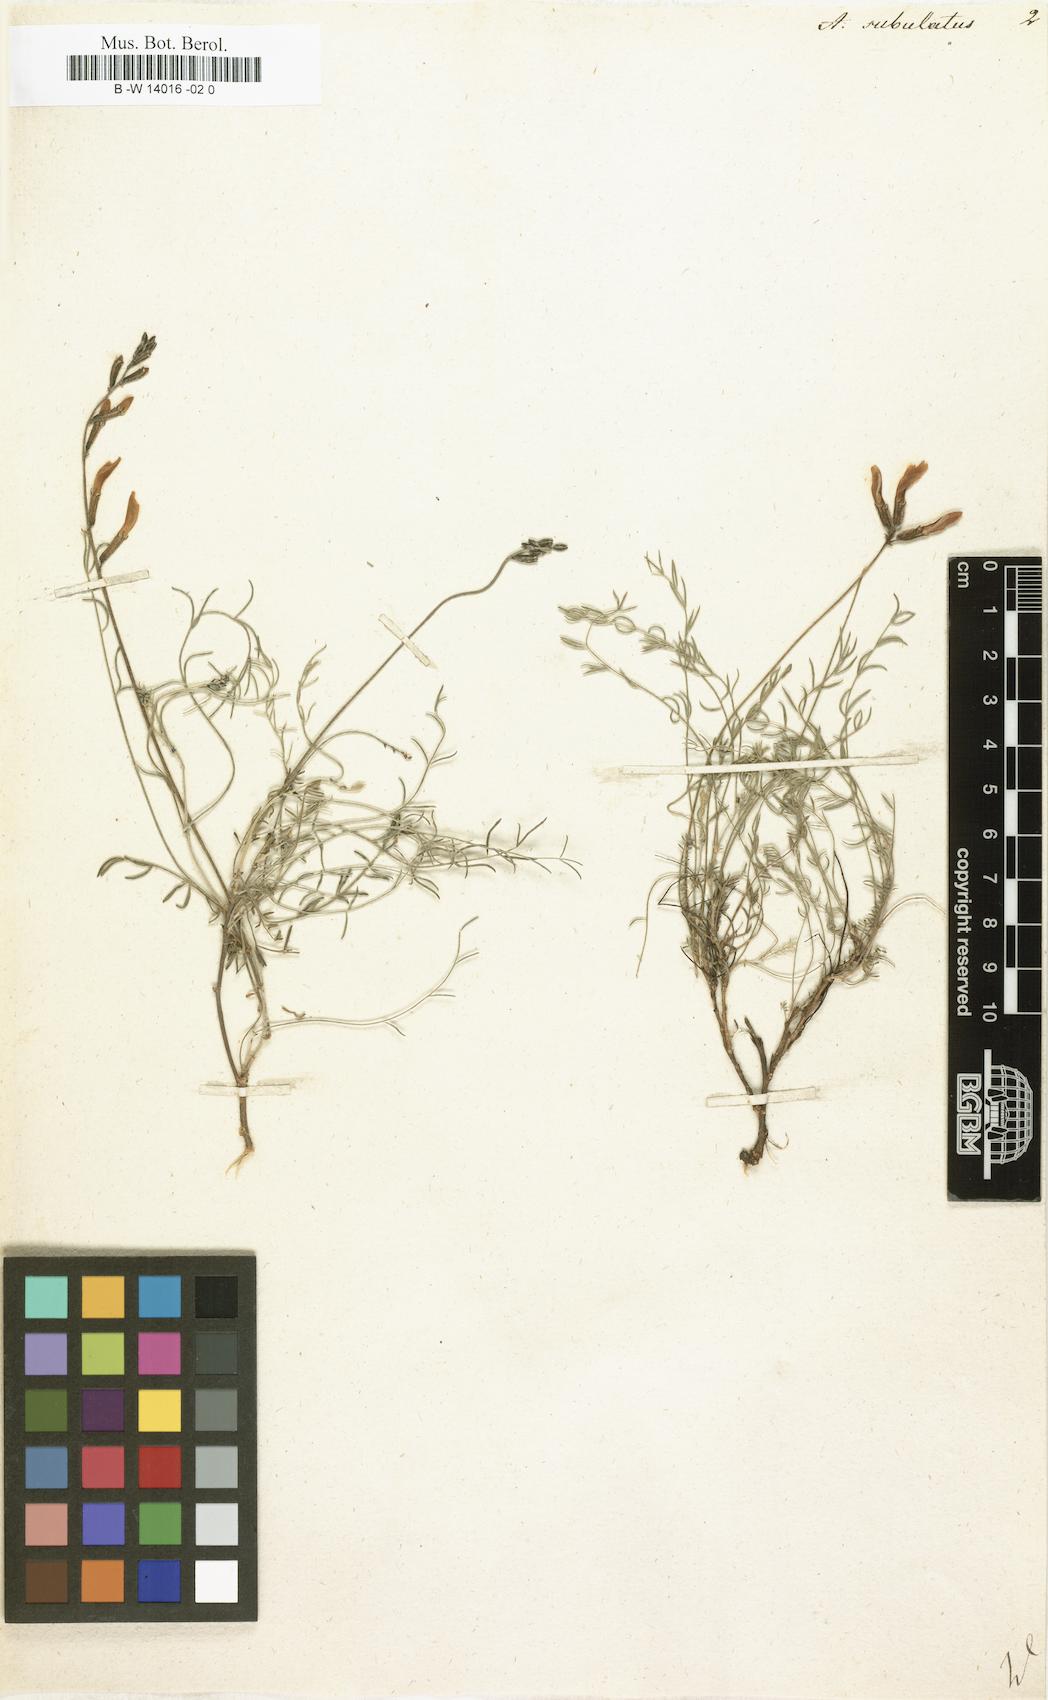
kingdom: Plantae
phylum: Tracheophyta
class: Magnoliopsida
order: Fabales
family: Fabaceae
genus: Astragalus
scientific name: Astragalus anfractuosus
